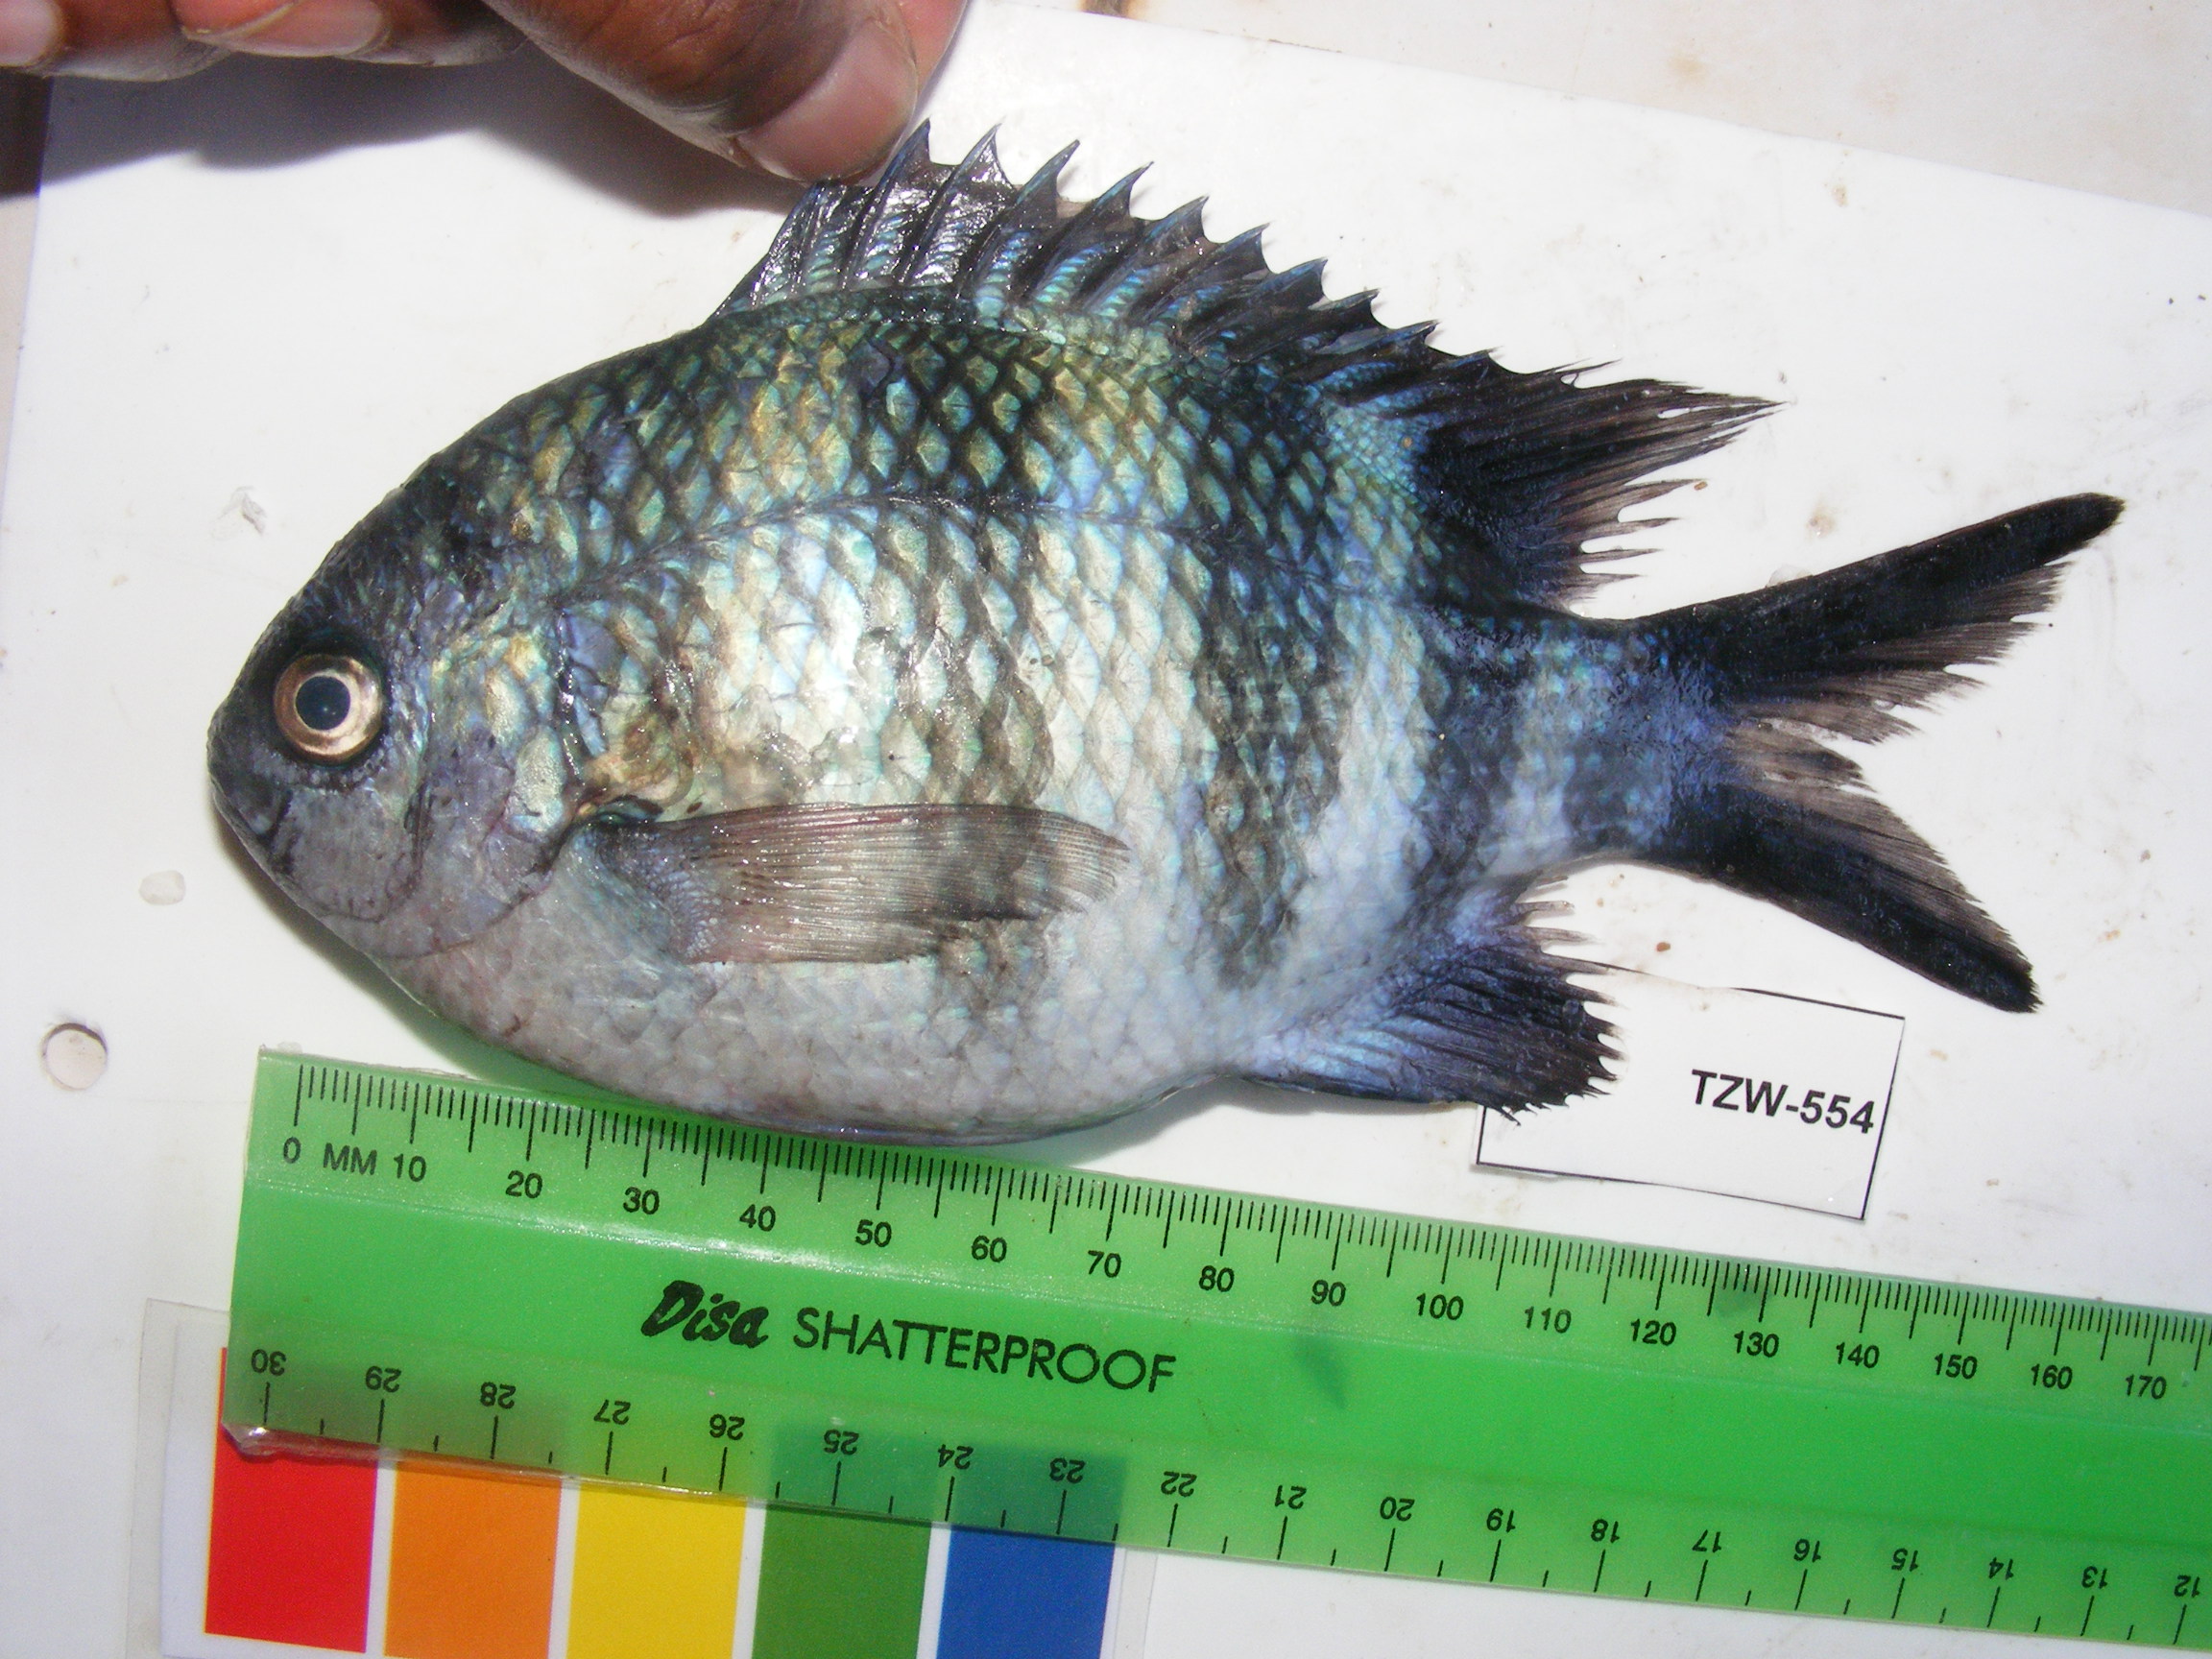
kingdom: Animalia
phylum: Chordata
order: Perciformes
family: Pomacentridae
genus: Abudefduf
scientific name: Abudefduf vaigiensis
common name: Indo-pacific sergeant
